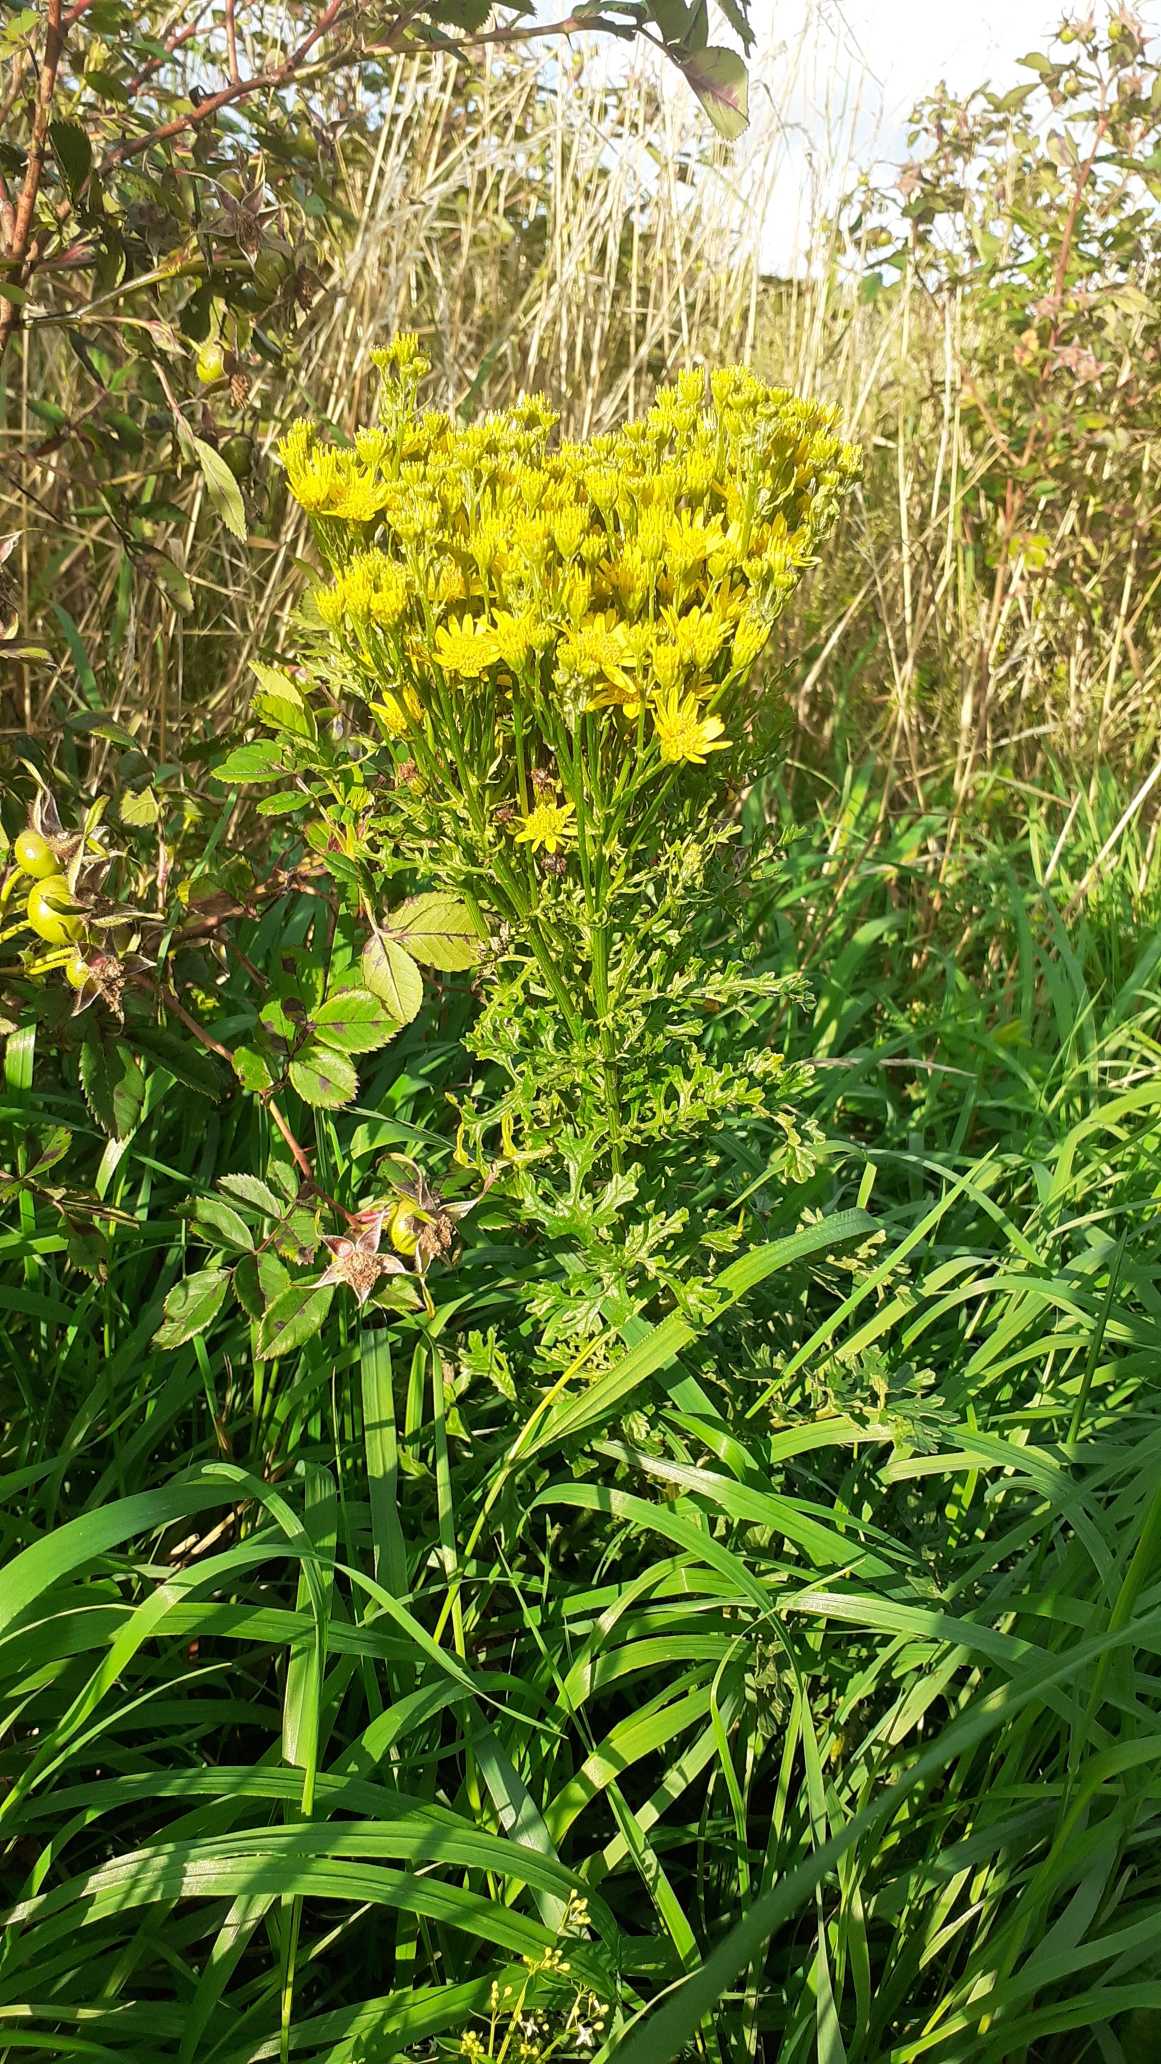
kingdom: Plantae
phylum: Tracheophyta
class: Magnoliopsida
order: Asterales
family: Asteraceae
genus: Jacobaea
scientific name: Jacobaea vulgaris
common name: Eng-brandbæger
